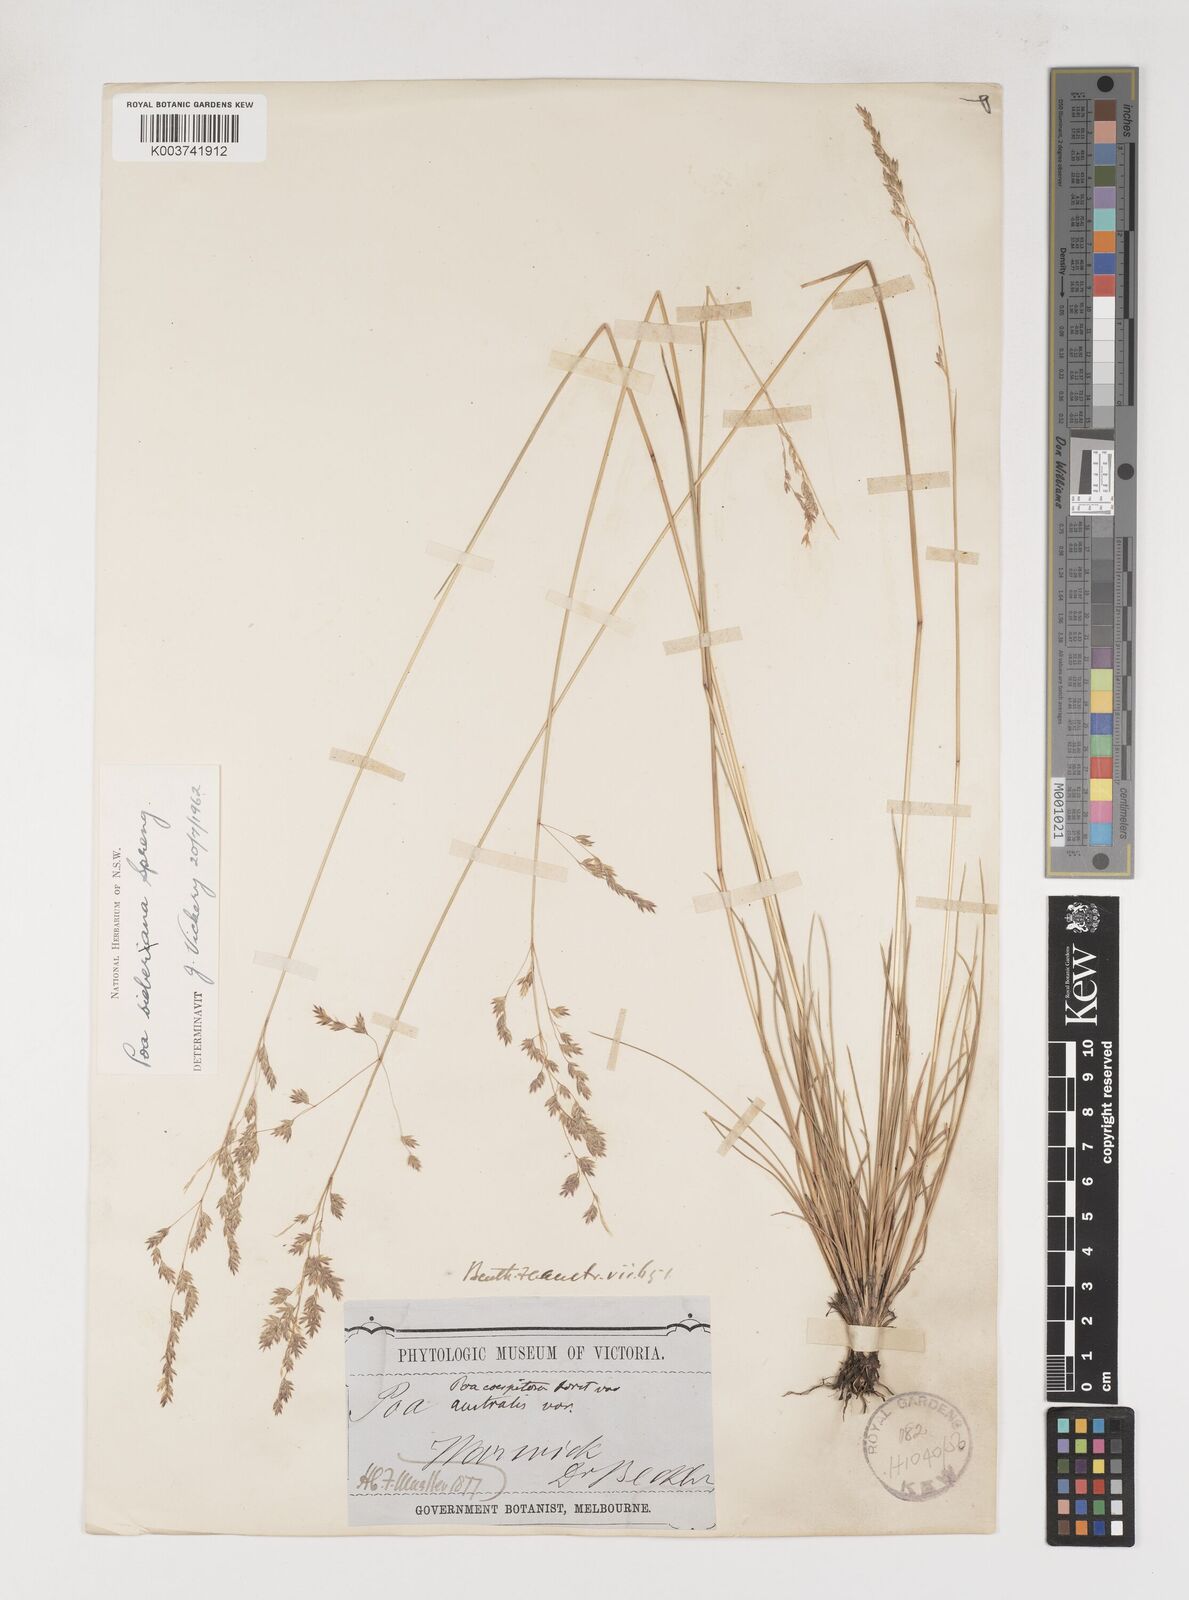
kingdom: Plantae
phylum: Tracheophyta
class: Liliopsida
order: Poales
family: Poaceae
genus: Poa
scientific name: Poa sieberiana
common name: Tussock poa
